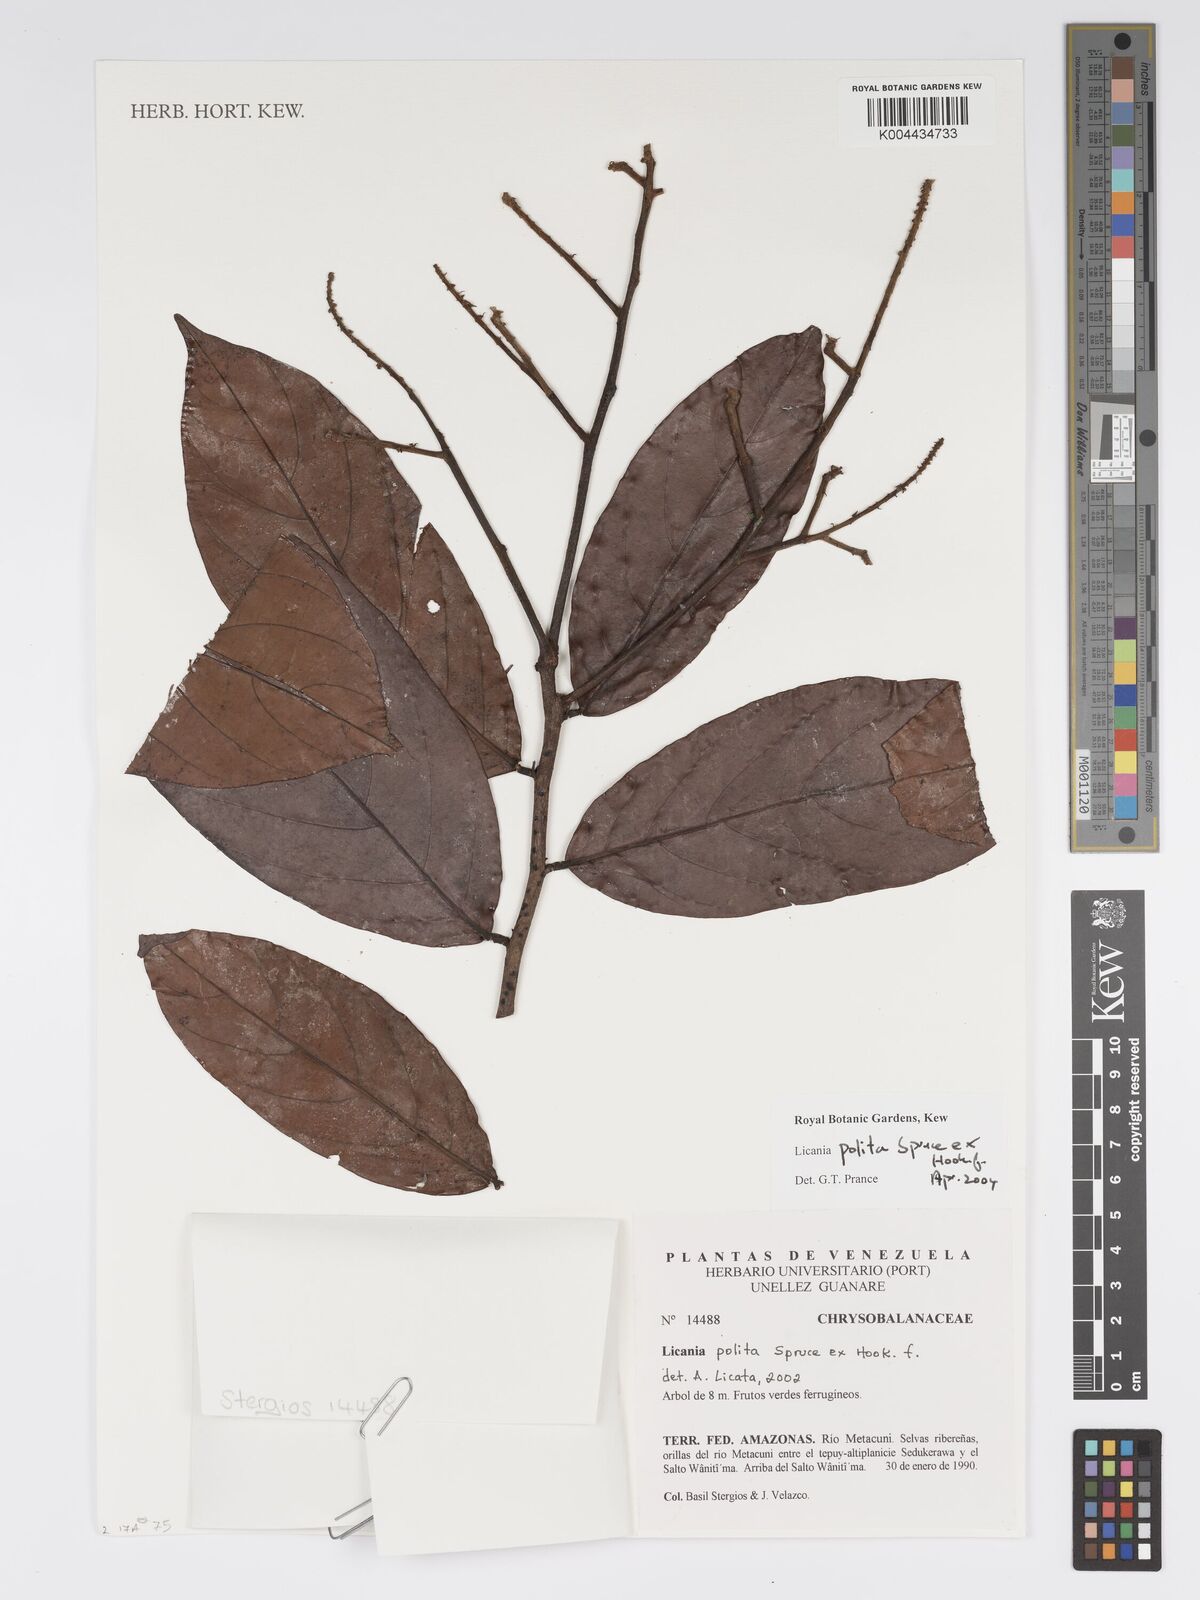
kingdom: Plantae
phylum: Tracheophyta
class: Magnoliopsida
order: Malpighiales
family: Chrysobalanaceae
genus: Licania
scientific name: Licania polita
